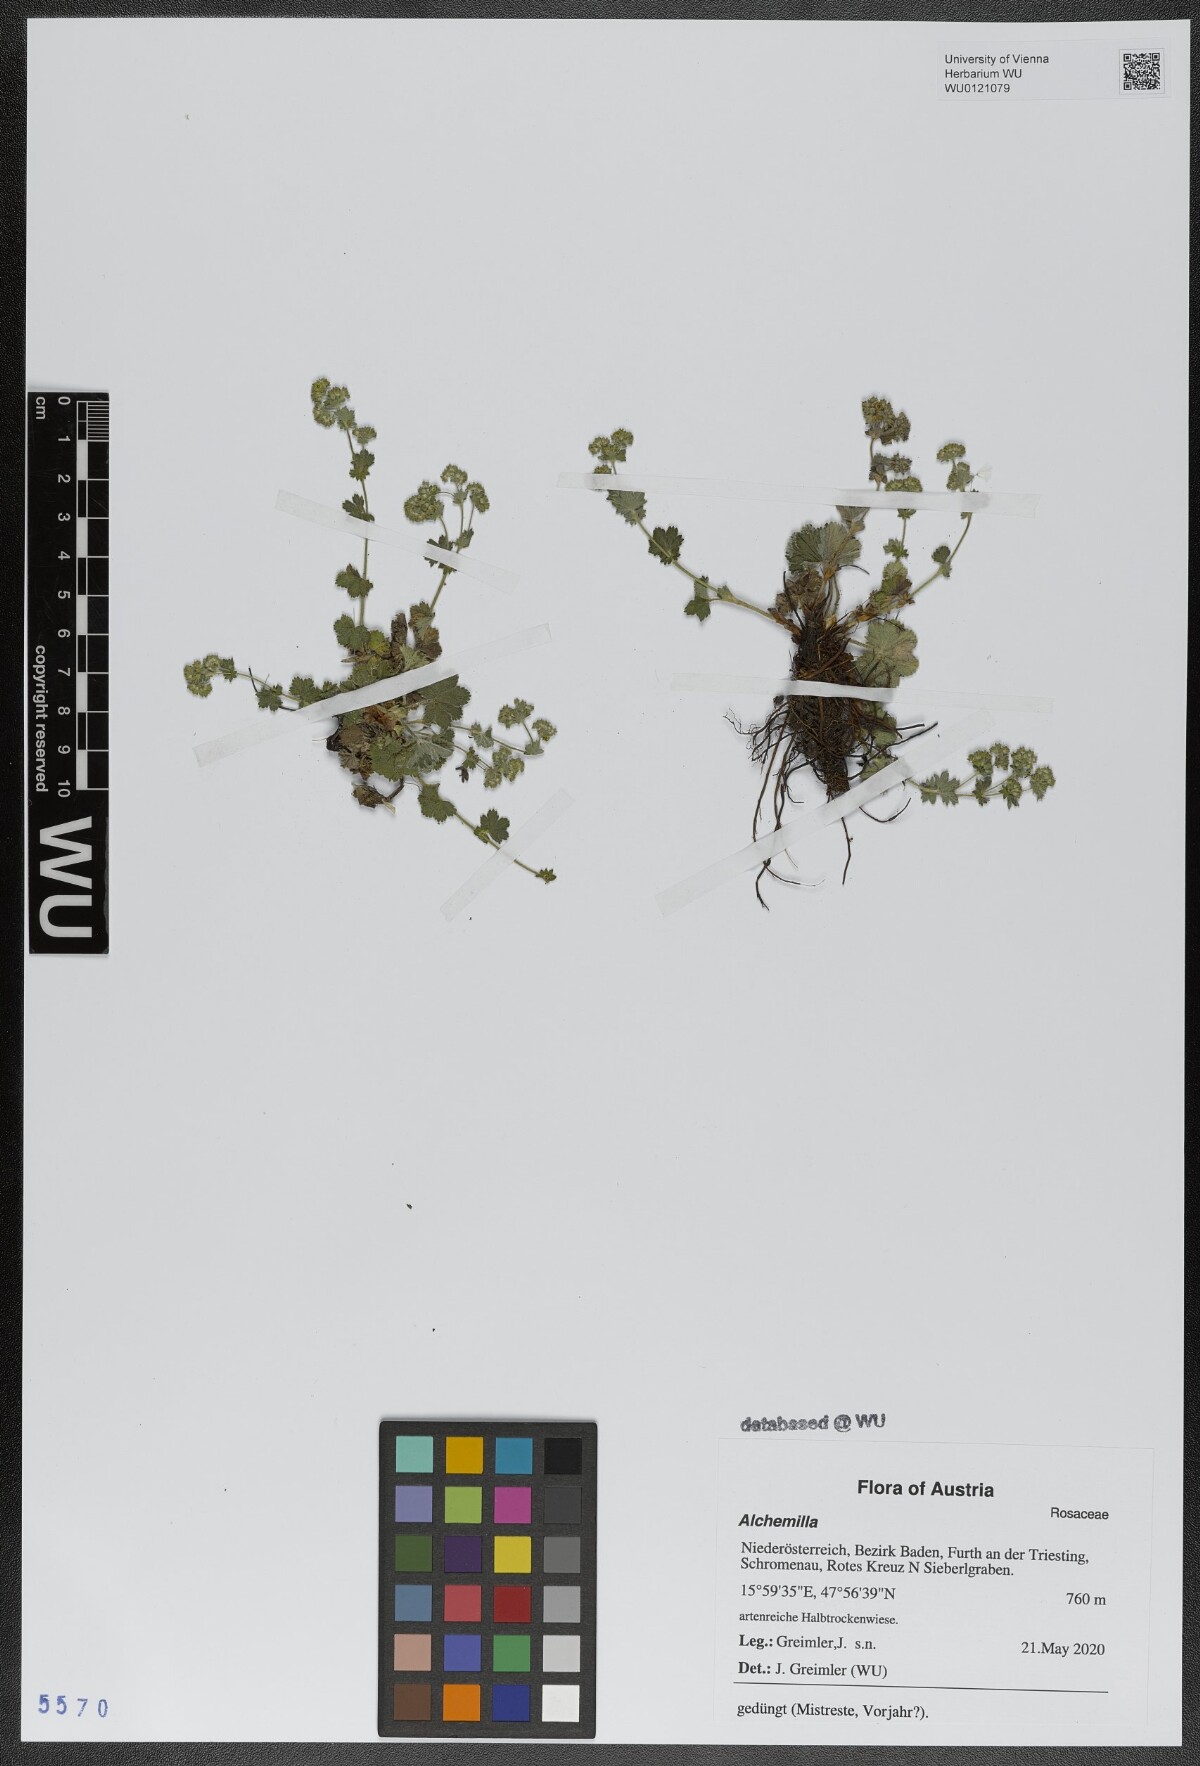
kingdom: Plantae
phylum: Tracheophyta
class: Magnoliopsida
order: Rosales
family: Rosaceae
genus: Alchemilla
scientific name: Alchemilla
